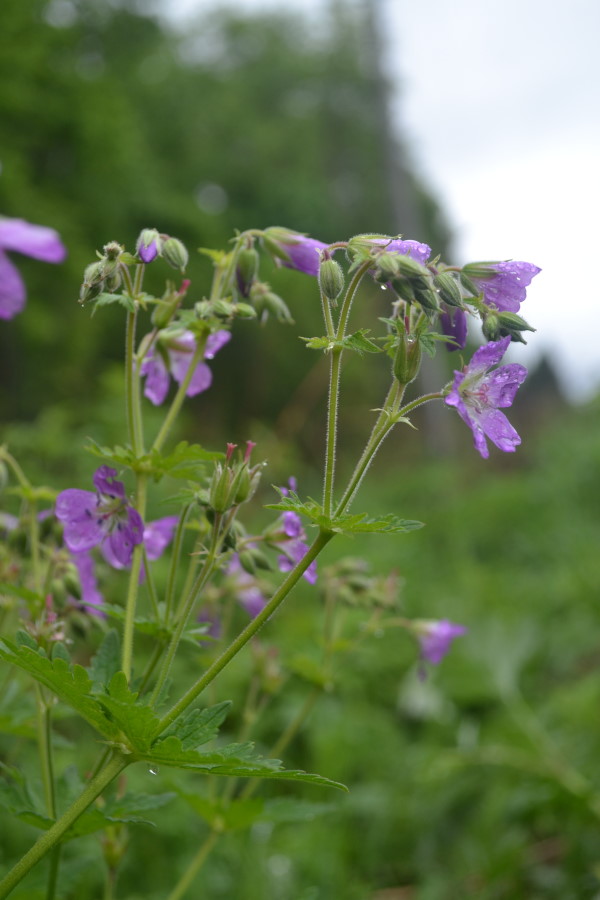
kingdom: Plantae
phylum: Tracheophyta
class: Magnoliopsida
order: Geraniales
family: Geraniaceae
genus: Geranium
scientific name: Geranium pratense
